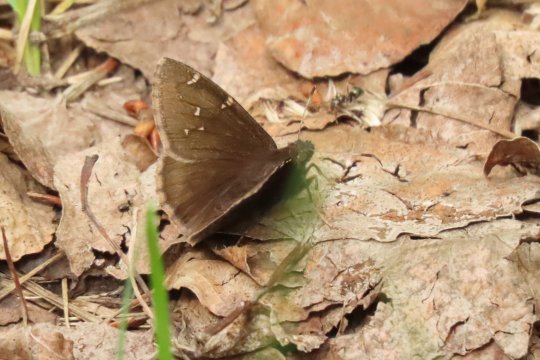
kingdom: Animalia
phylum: Arthropoda
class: Insecta
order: Lepidoptera
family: Hesperiidae
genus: Autochton
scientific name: Autochton
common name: Northern Cloudywing
